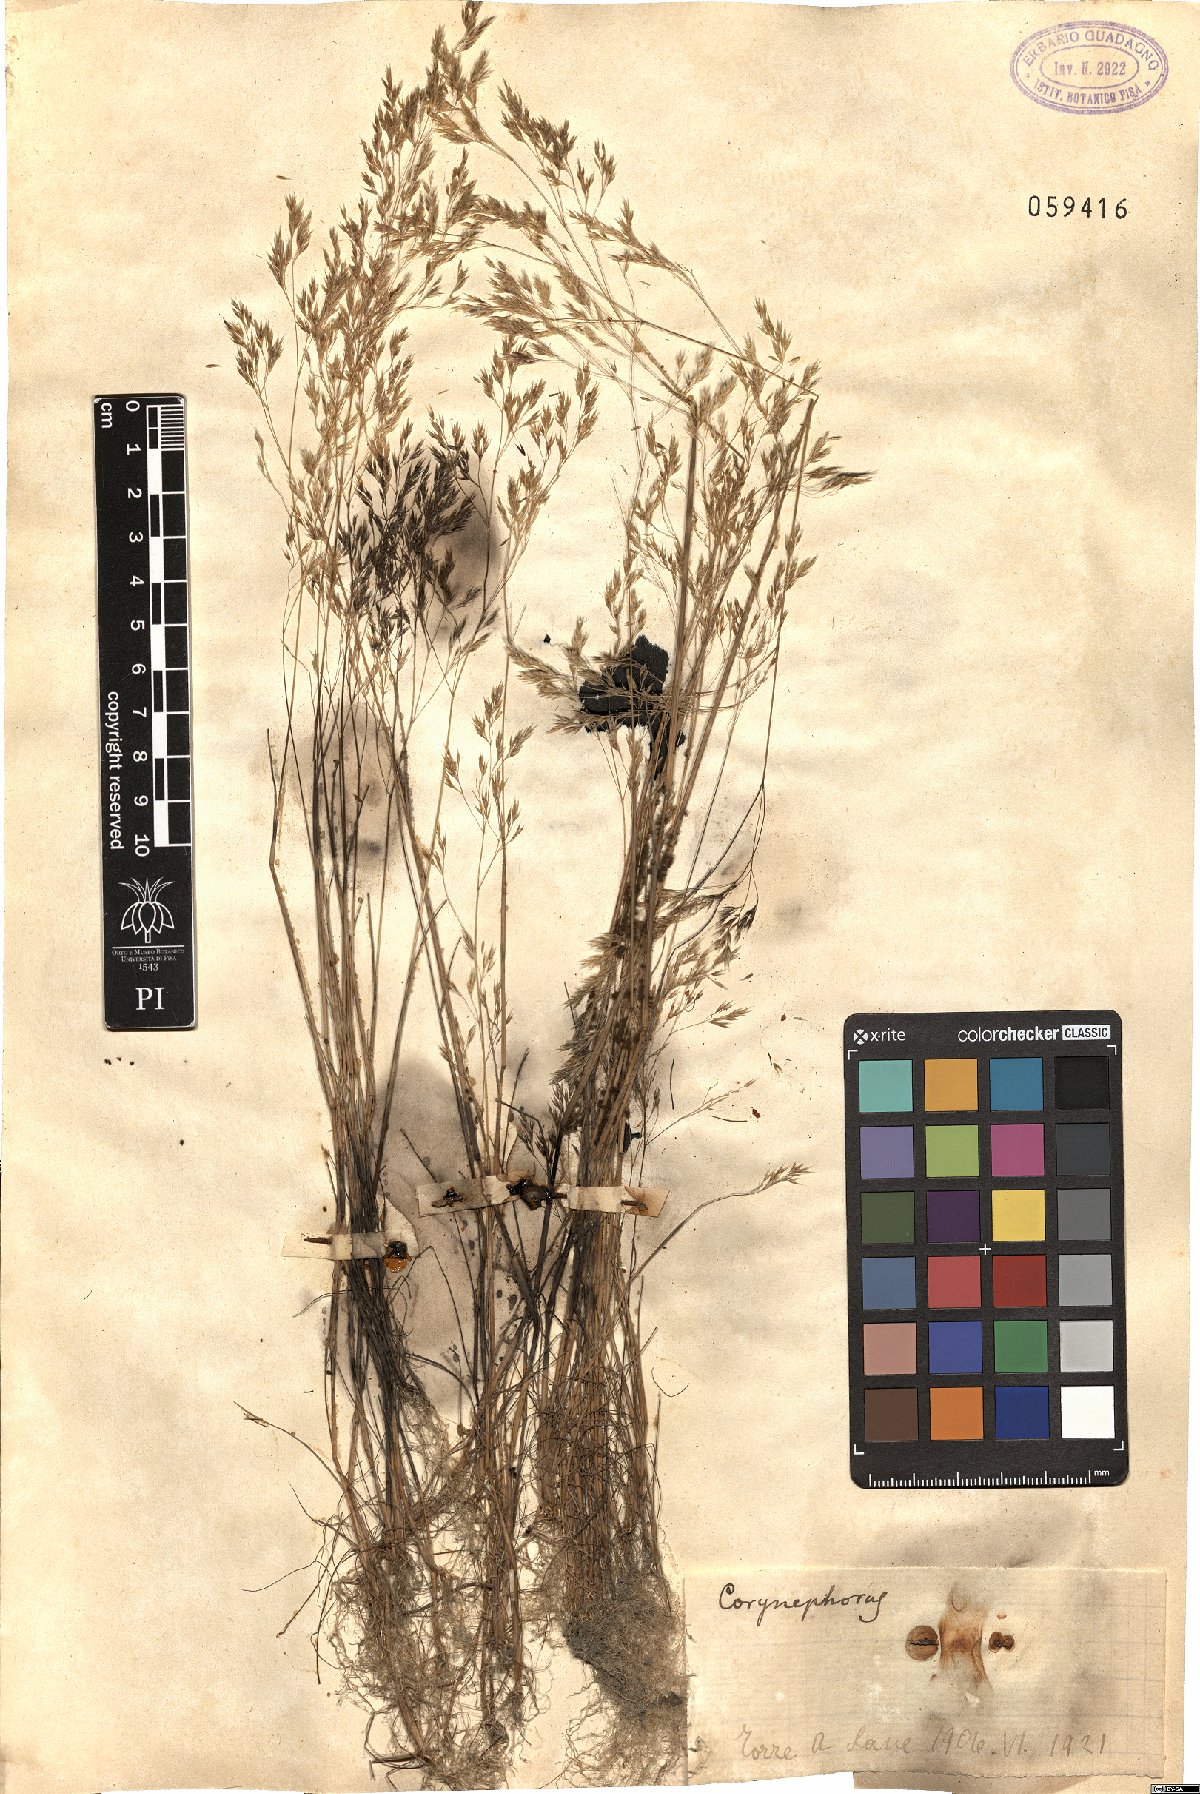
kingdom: Plantae
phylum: Tracheophyta
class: Liliopsida
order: Poales
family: Poaceae
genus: Corynephorus
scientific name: Corynephorus
